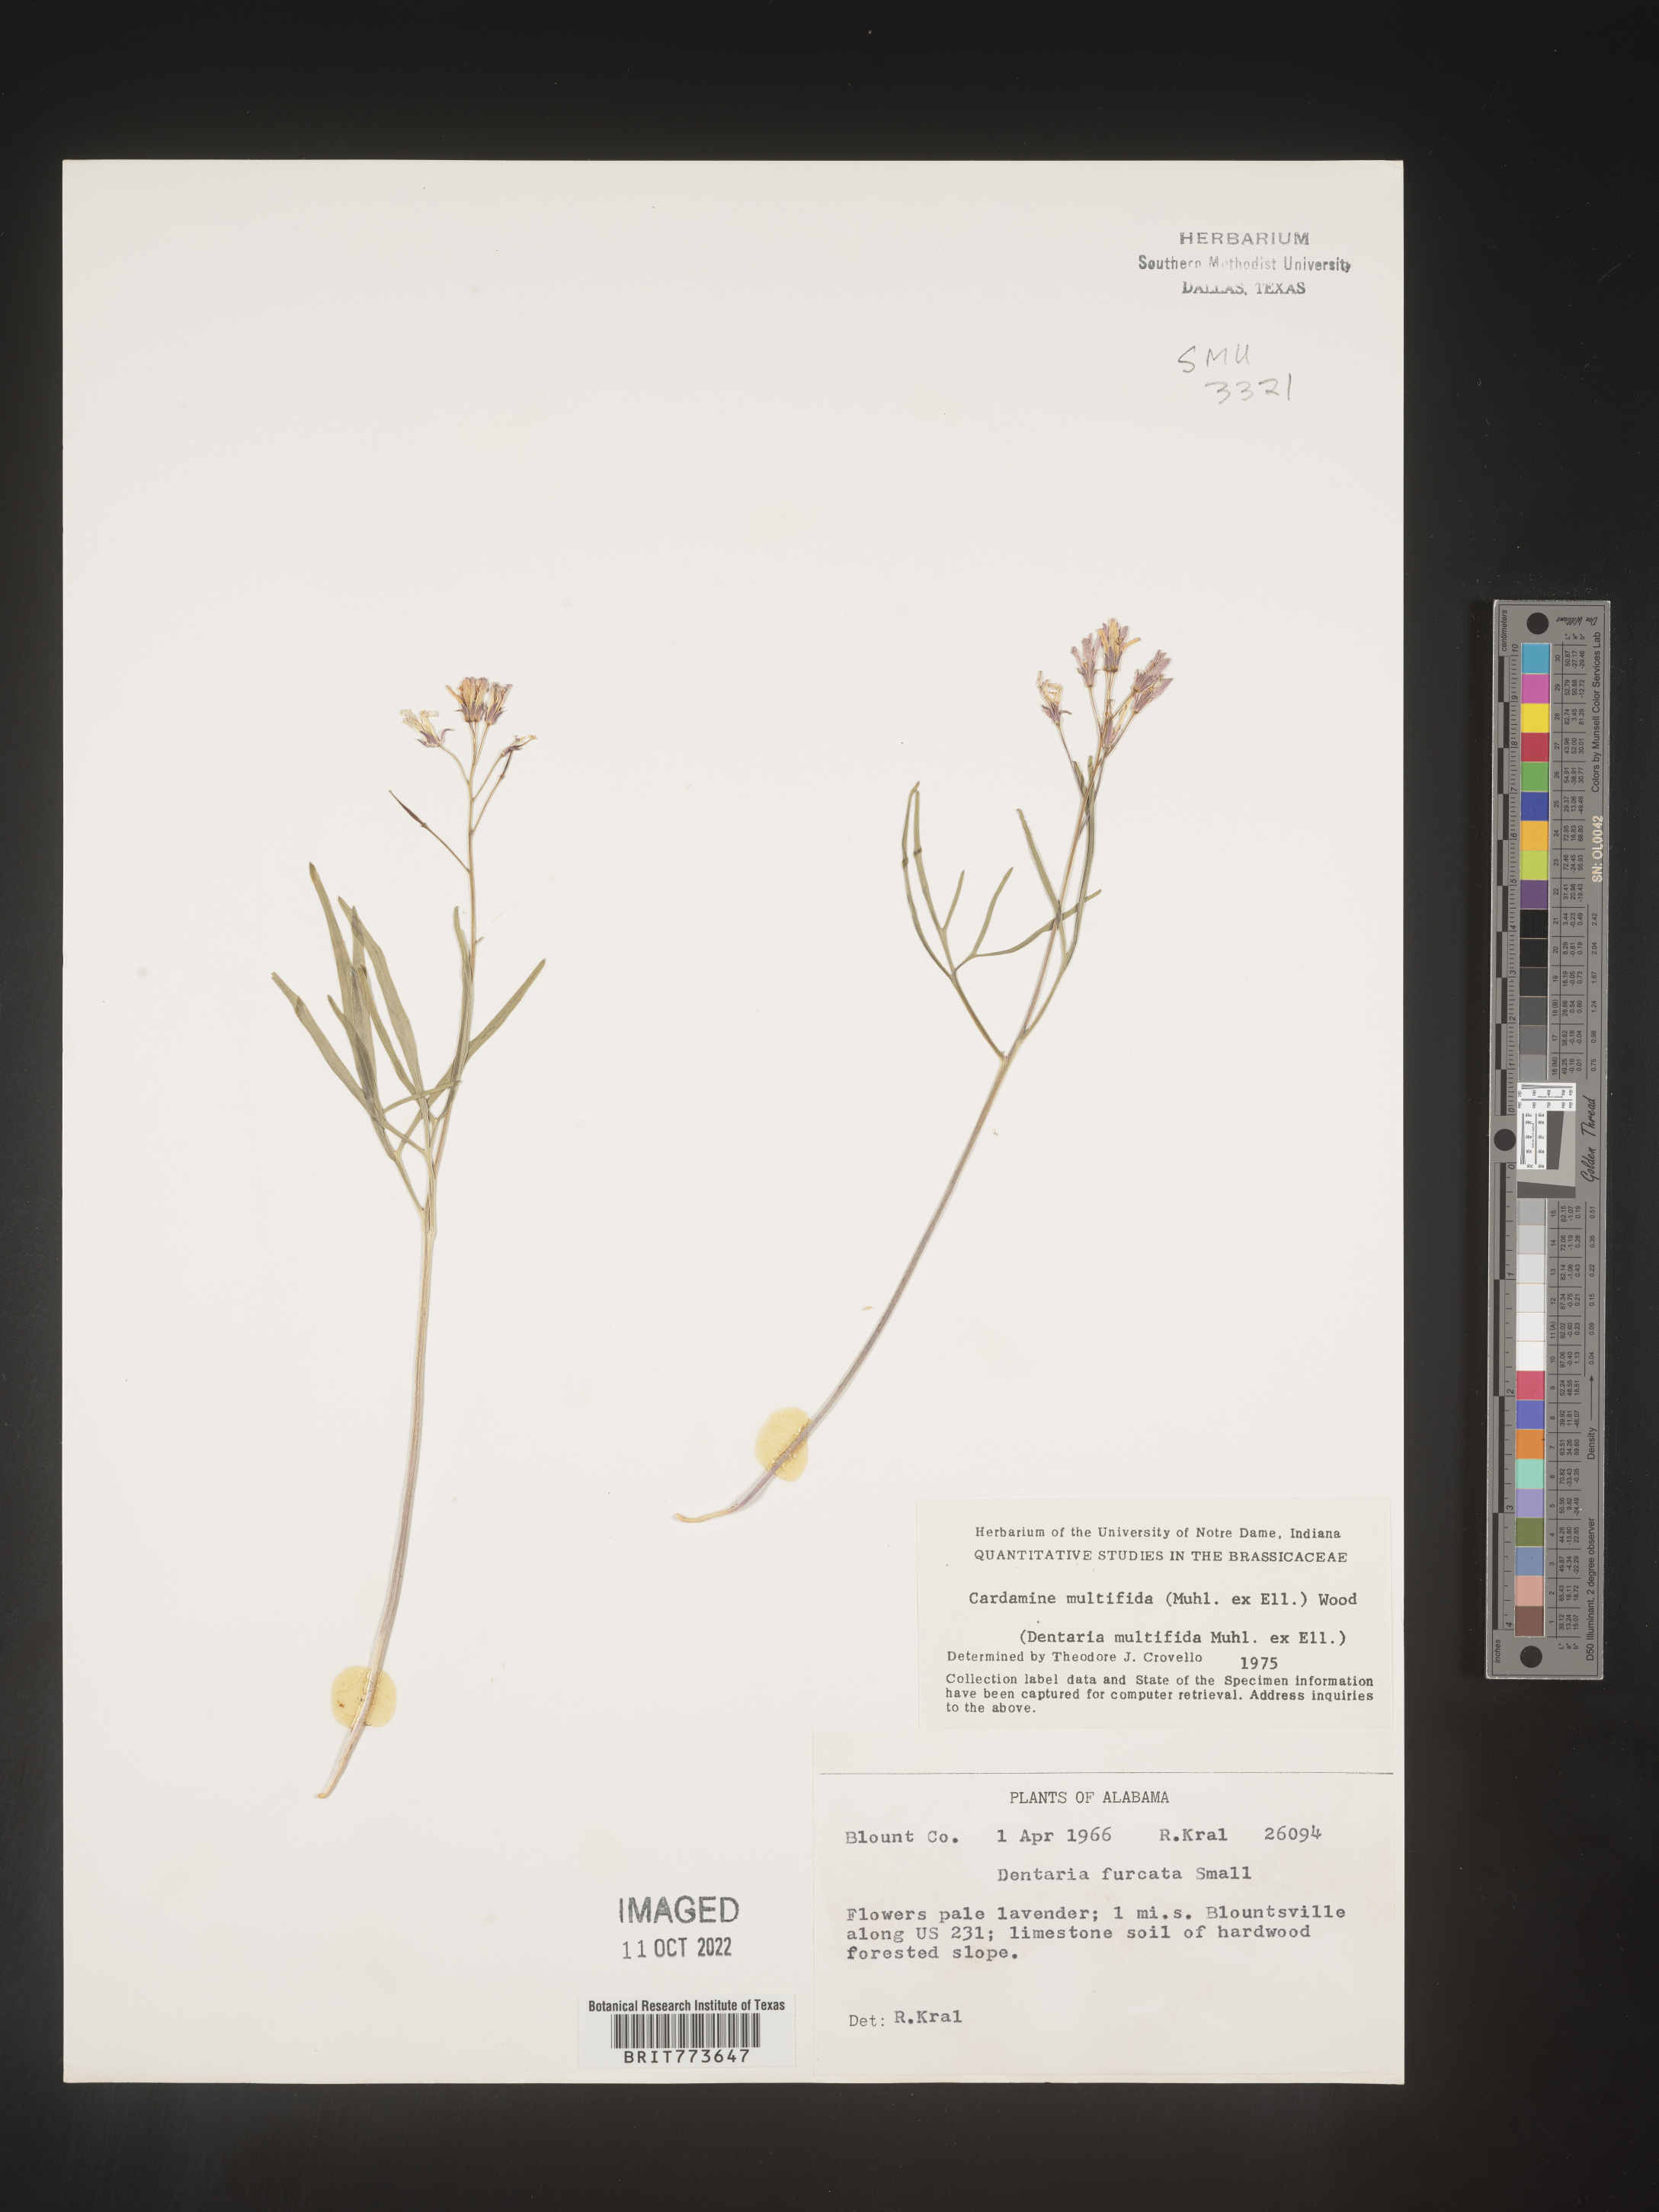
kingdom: Plantae
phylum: Tracheophyta
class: Magnoliopsida
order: Brassicales
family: Brassicaceae
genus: Cardamine
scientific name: Cardamine
